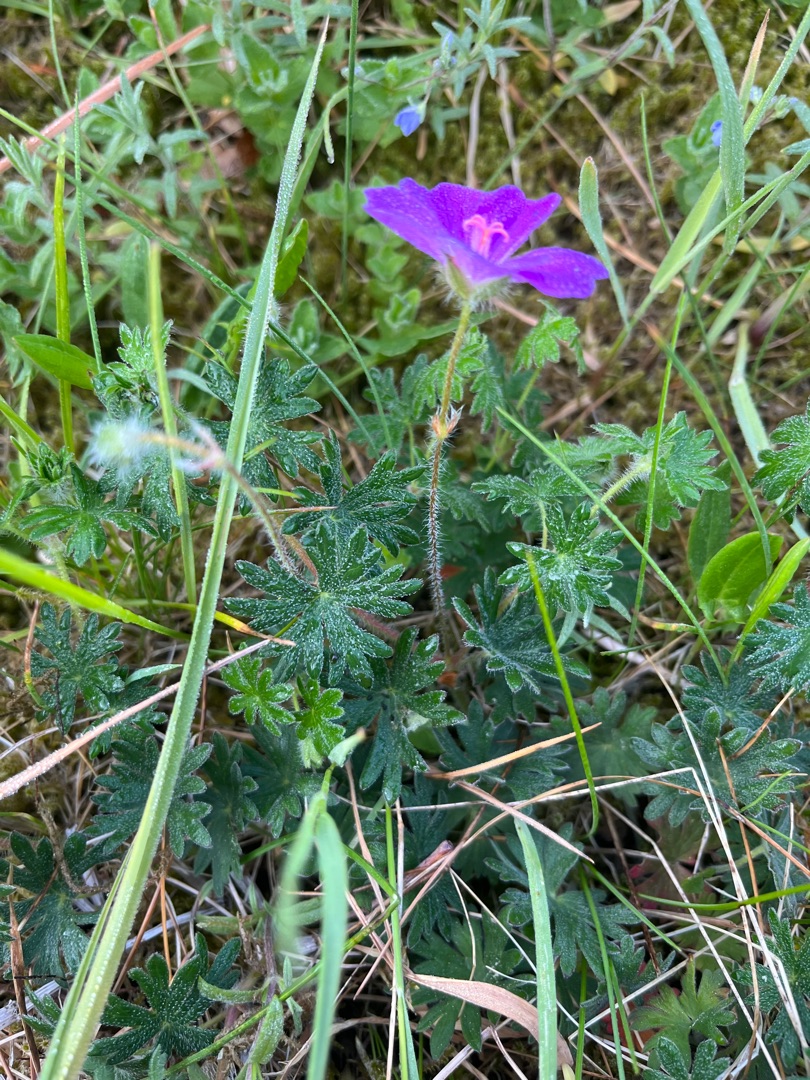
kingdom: Plantae
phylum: Tracheophyta
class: Magnoliopsida
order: Geraniales
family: Geraniaceae
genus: Geranium
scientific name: Geranium sanguineum
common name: Blodrød storkenæb
